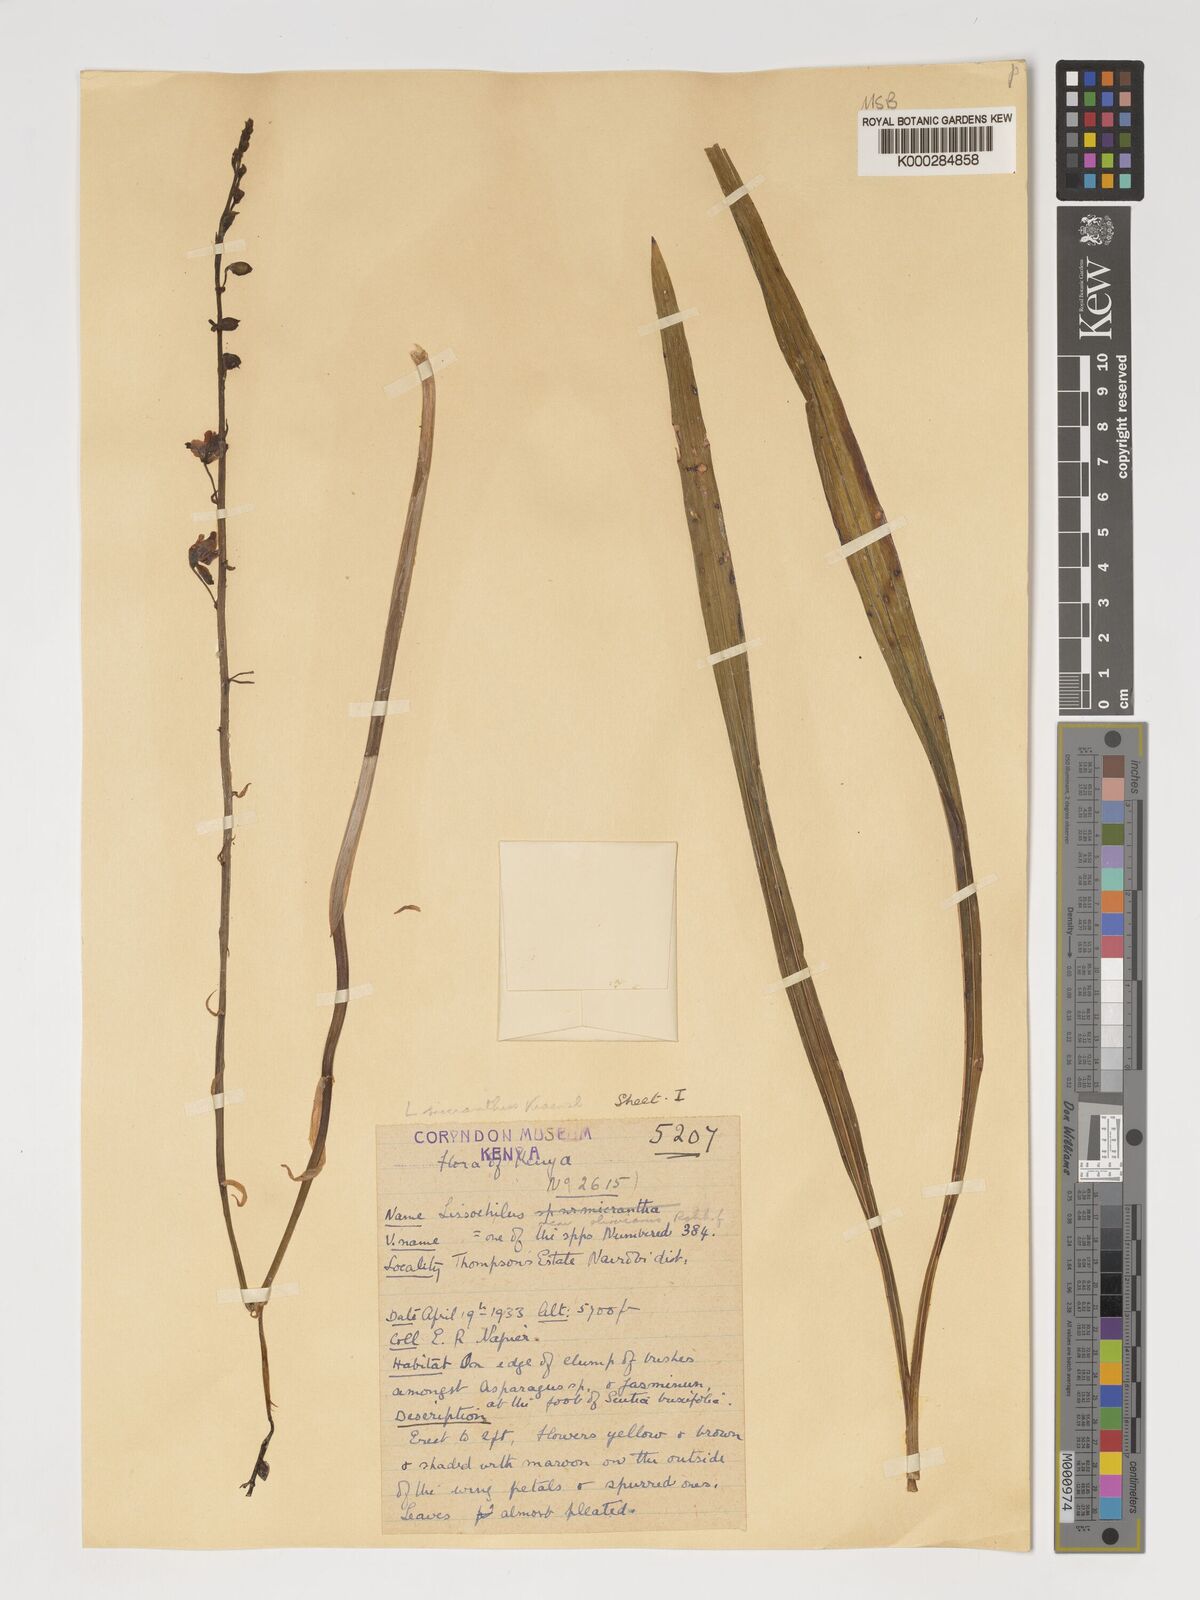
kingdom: Plantae
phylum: Tracheophyta
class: Liliopsida
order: Asparagales
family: Orchidaceae
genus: Eulophia
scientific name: Eulophia streptopetala
